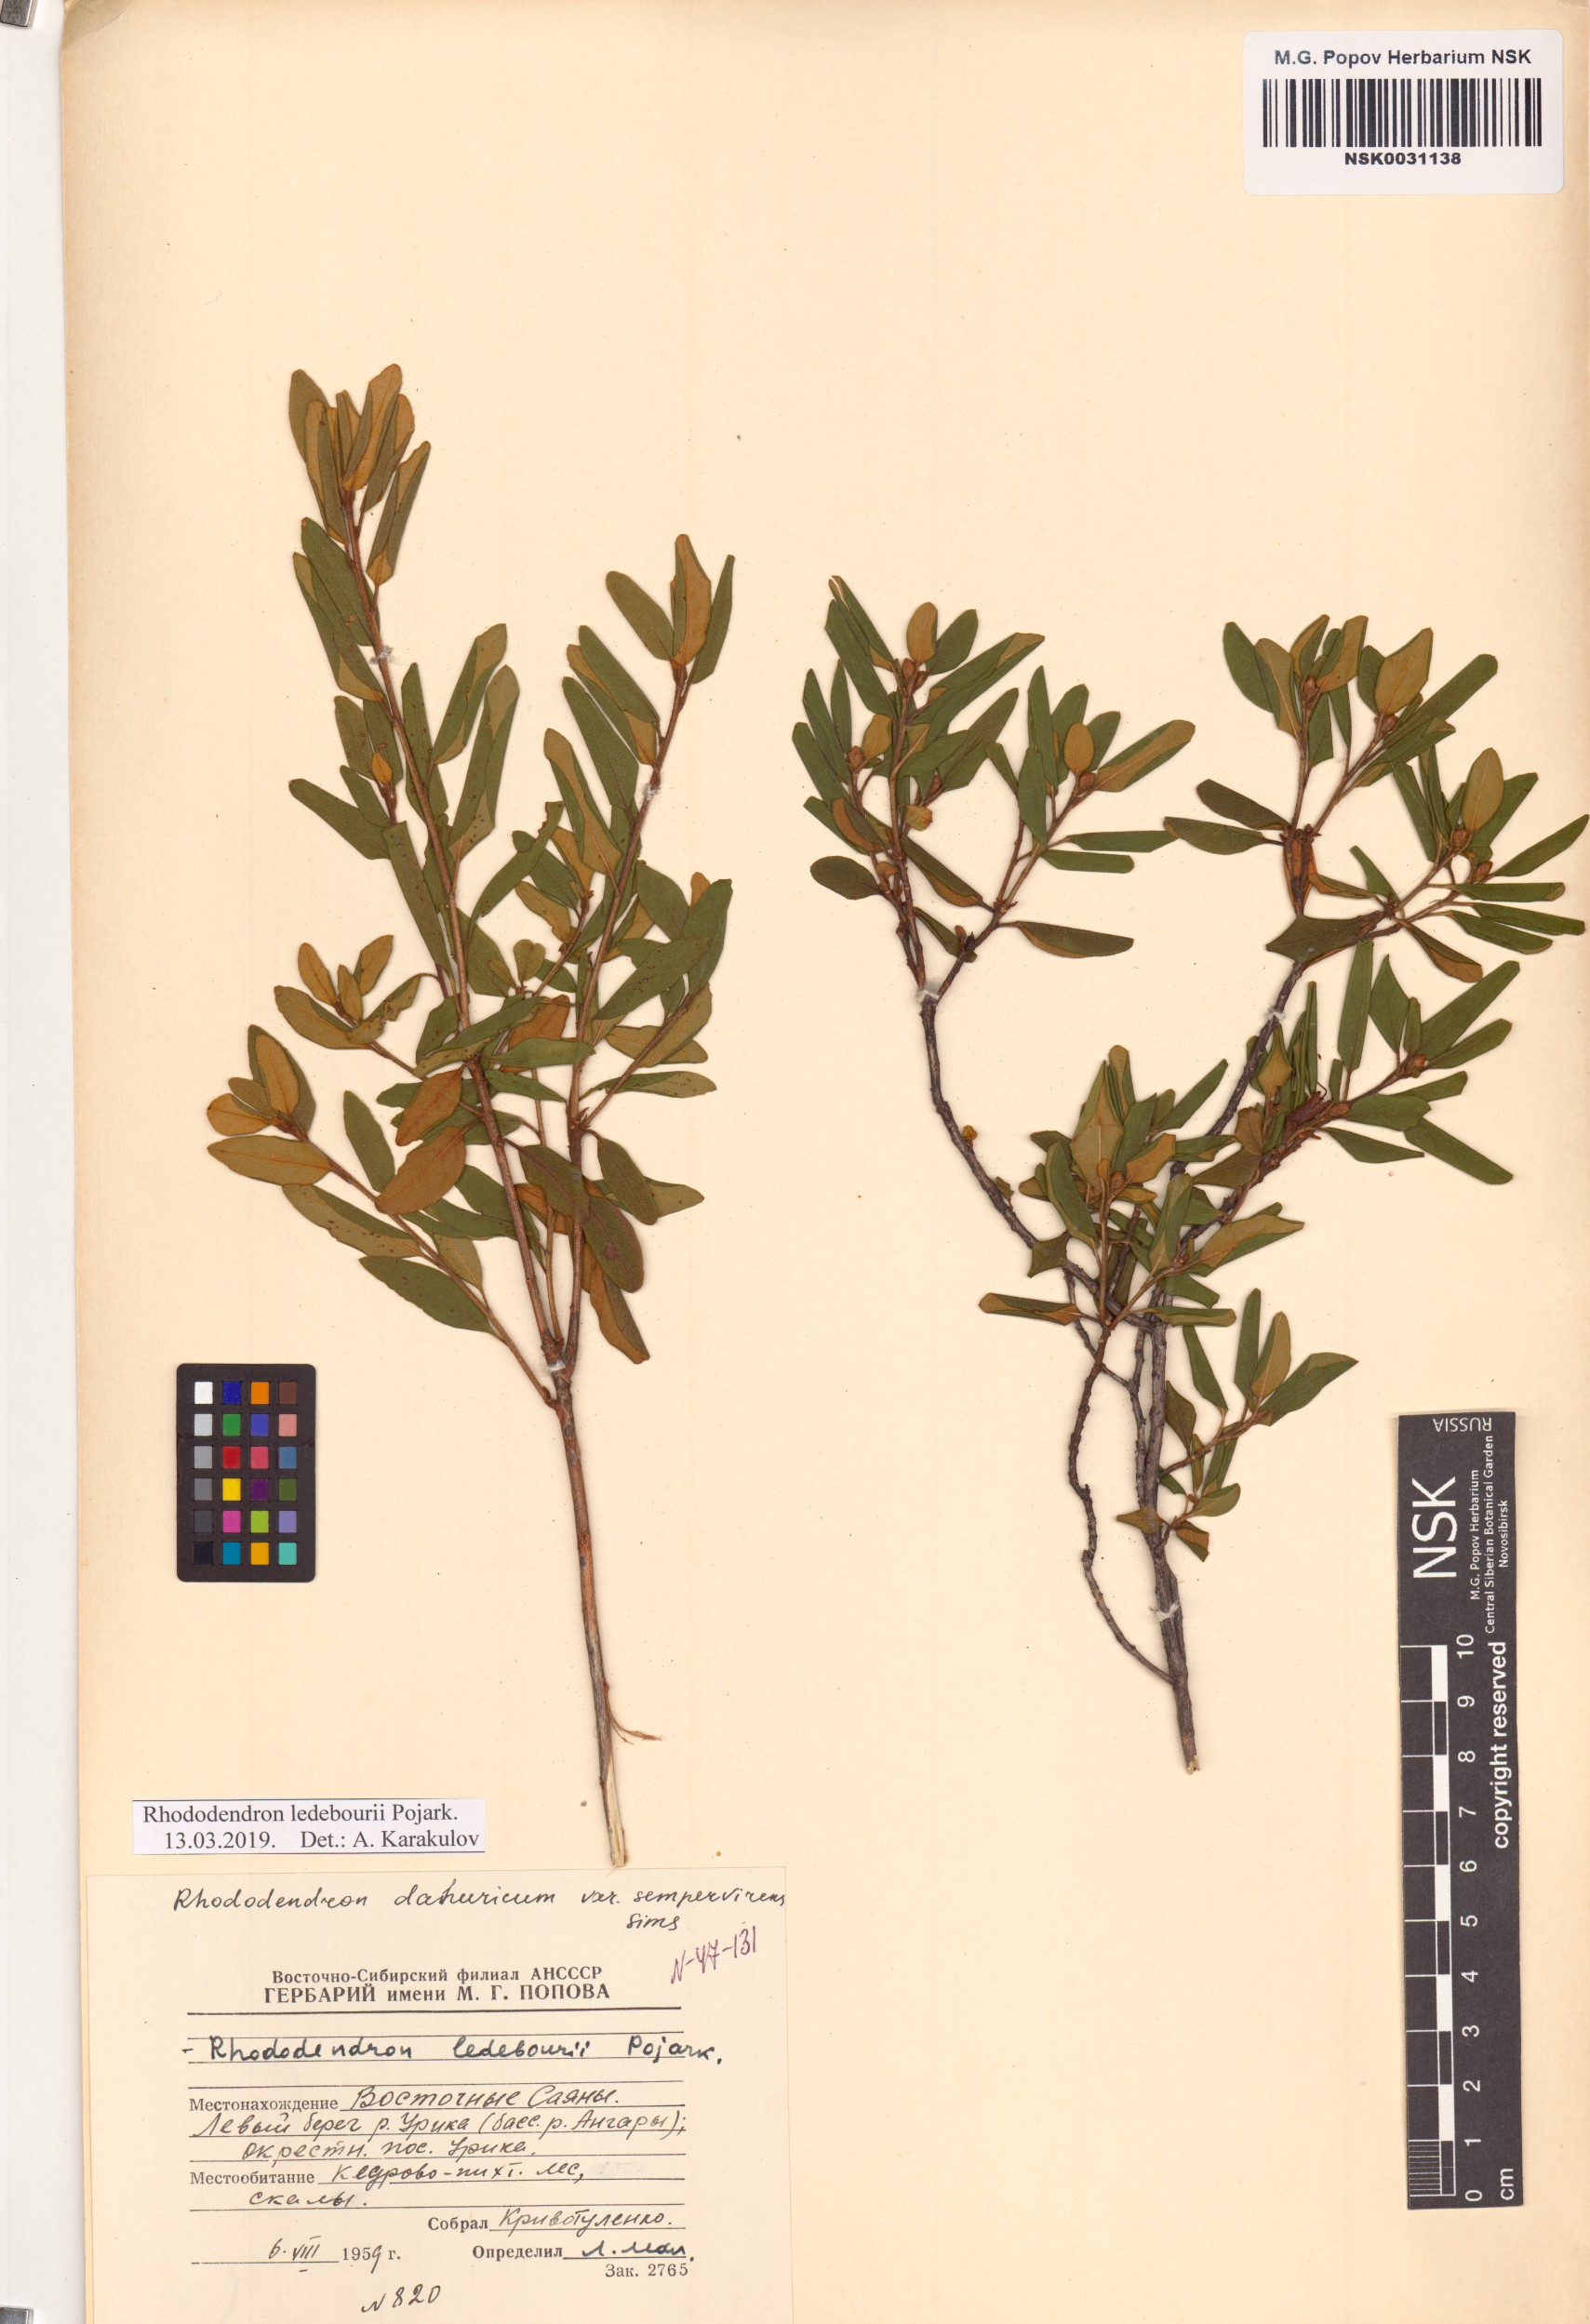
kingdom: Plantae
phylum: Tracheophyta
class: Magnoliopsida
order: Ericales
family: Ericaceae
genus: Rhododendron
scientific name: Rhododendron dauricum
